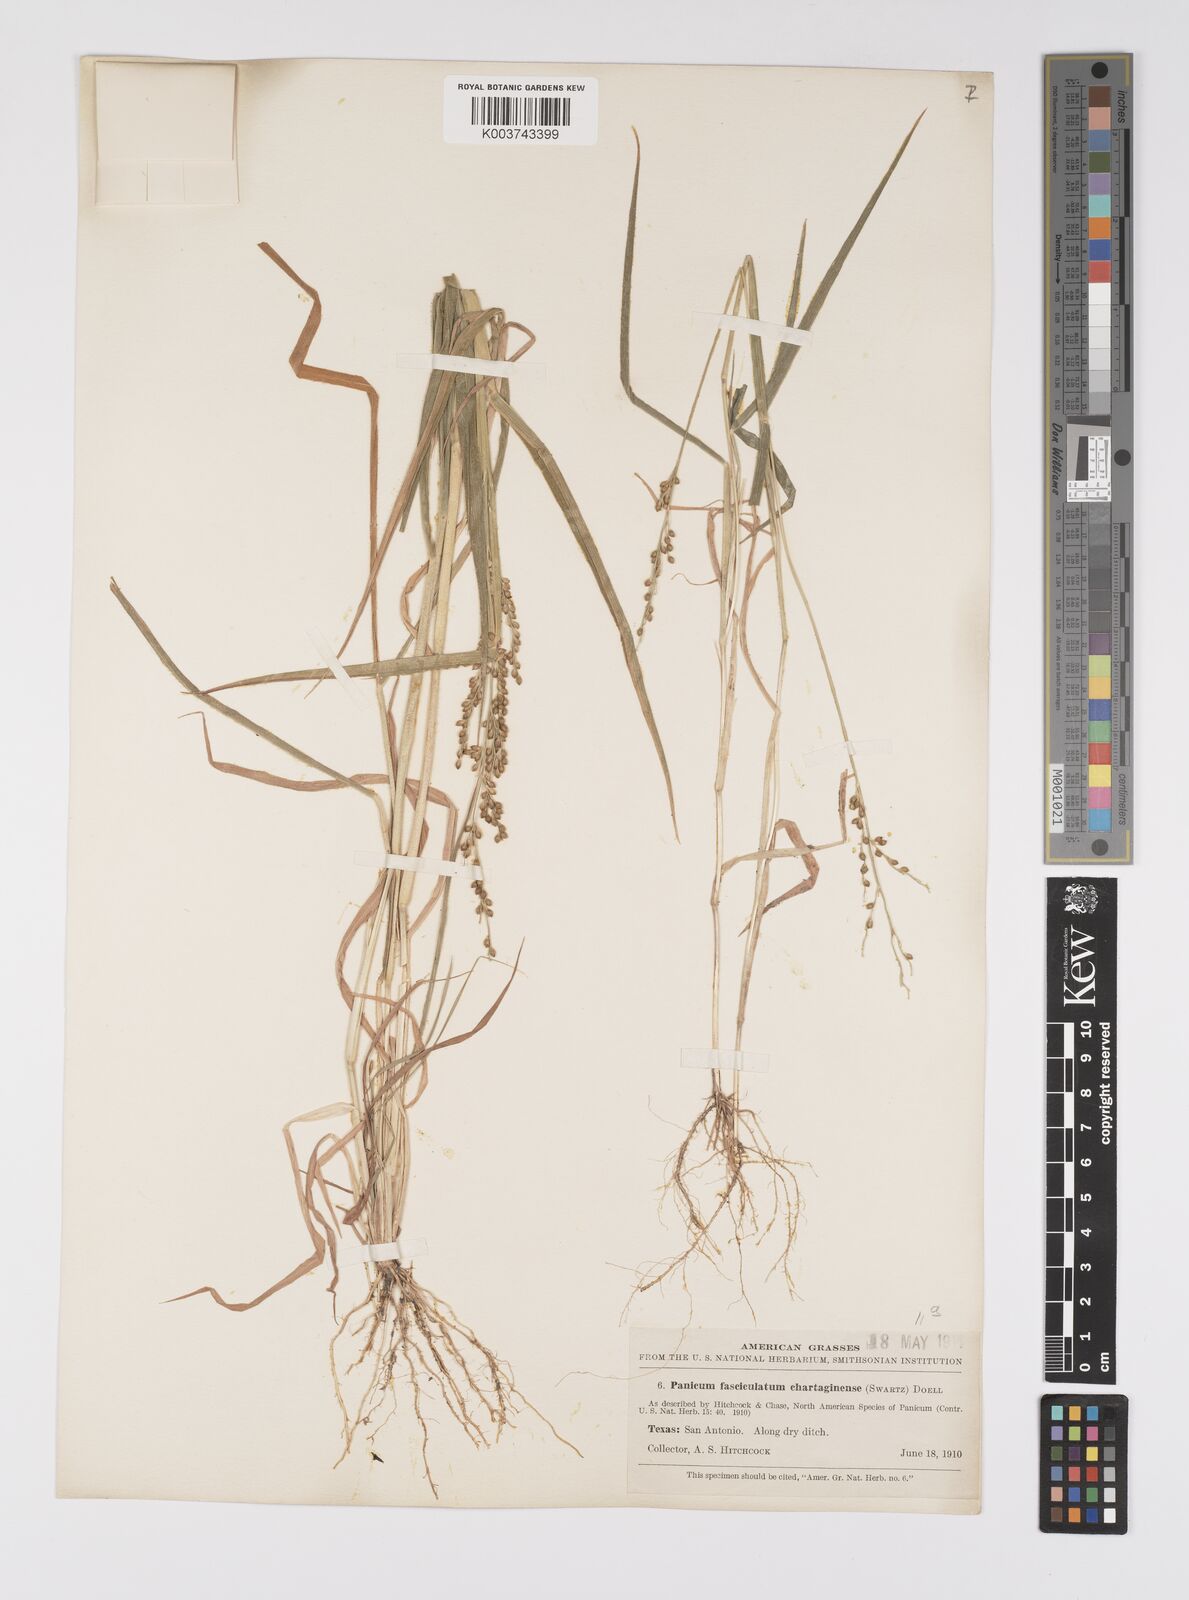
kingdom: Plantae
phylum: Tracheophyta
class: Liliopsida
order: Poales
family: Poaceae
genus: Urochloa
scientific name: Urochloa fusca
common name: Browntop signal grass
